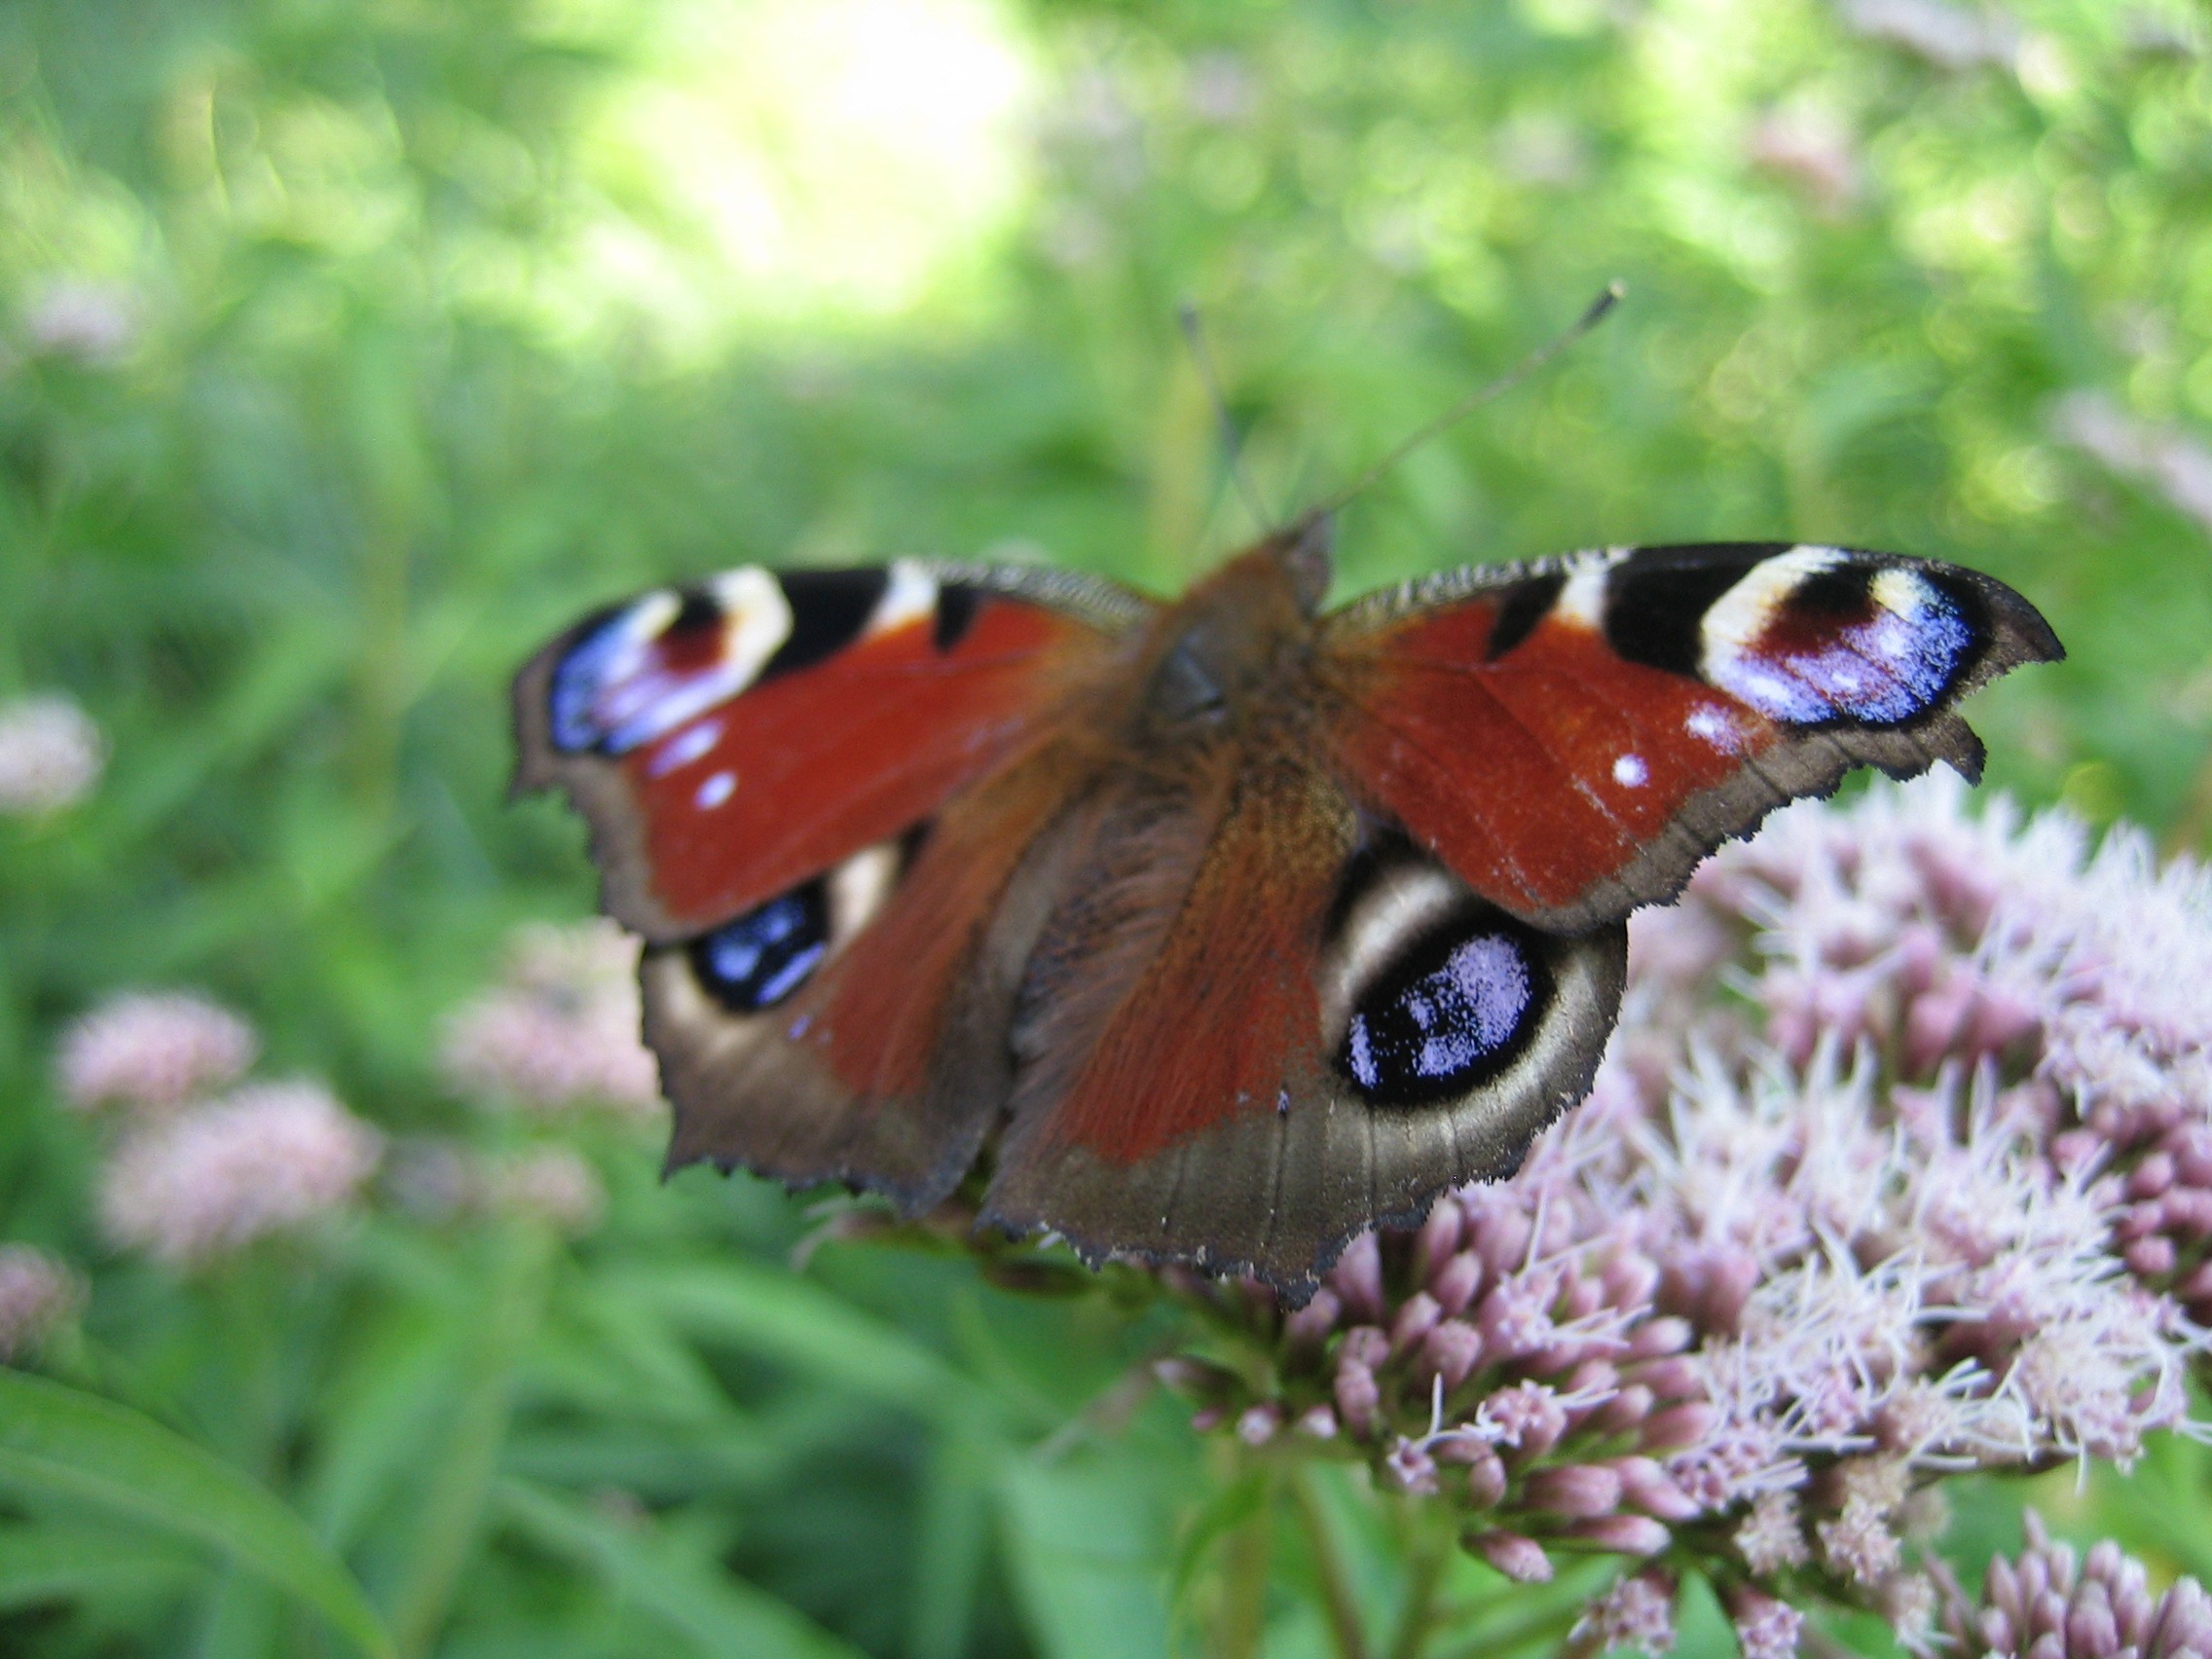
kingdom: Animalia
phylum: Arthropoda
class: Insecta
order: Lepidoptera
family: Nymphalidae
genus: Aglais
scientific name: Aglais io
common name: Dagpåfugleøje
